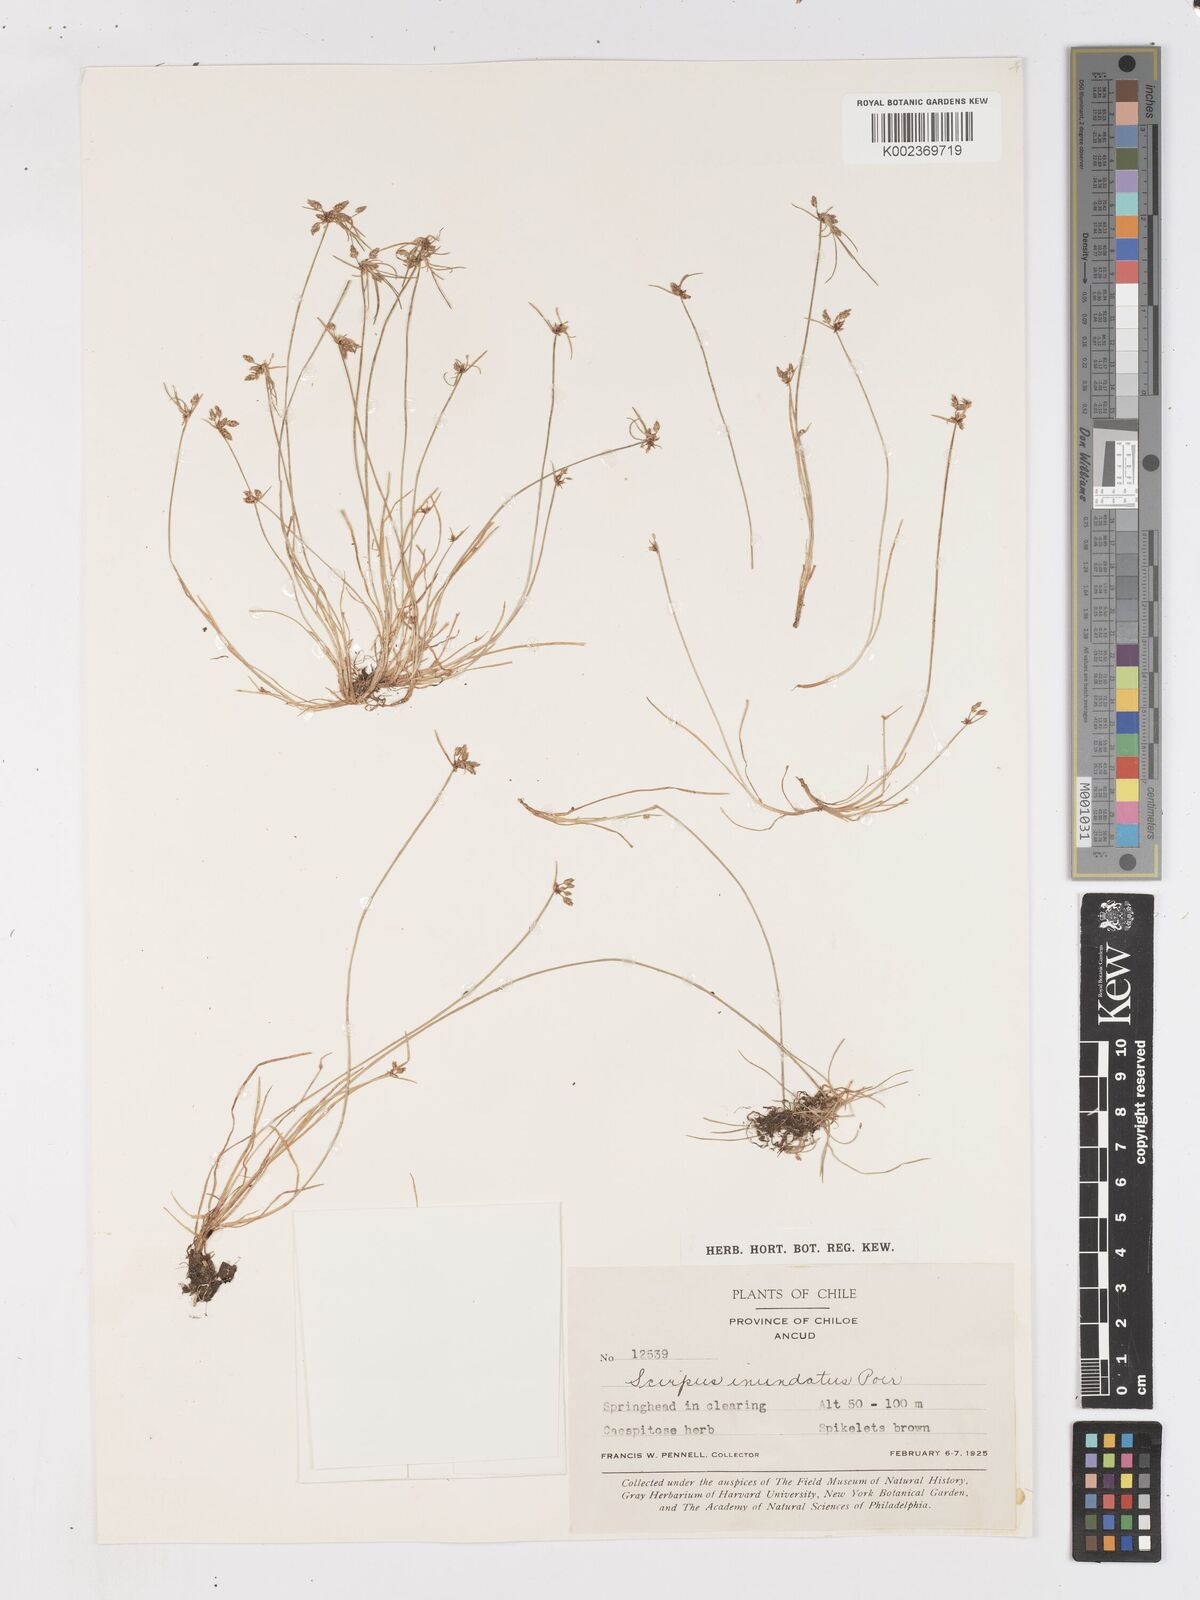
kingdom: Plantae
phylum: Tracheophyta
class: Liliopsida
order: Poales
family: Cyperaceae
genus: Isolepis
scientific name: Isolepis inundata
